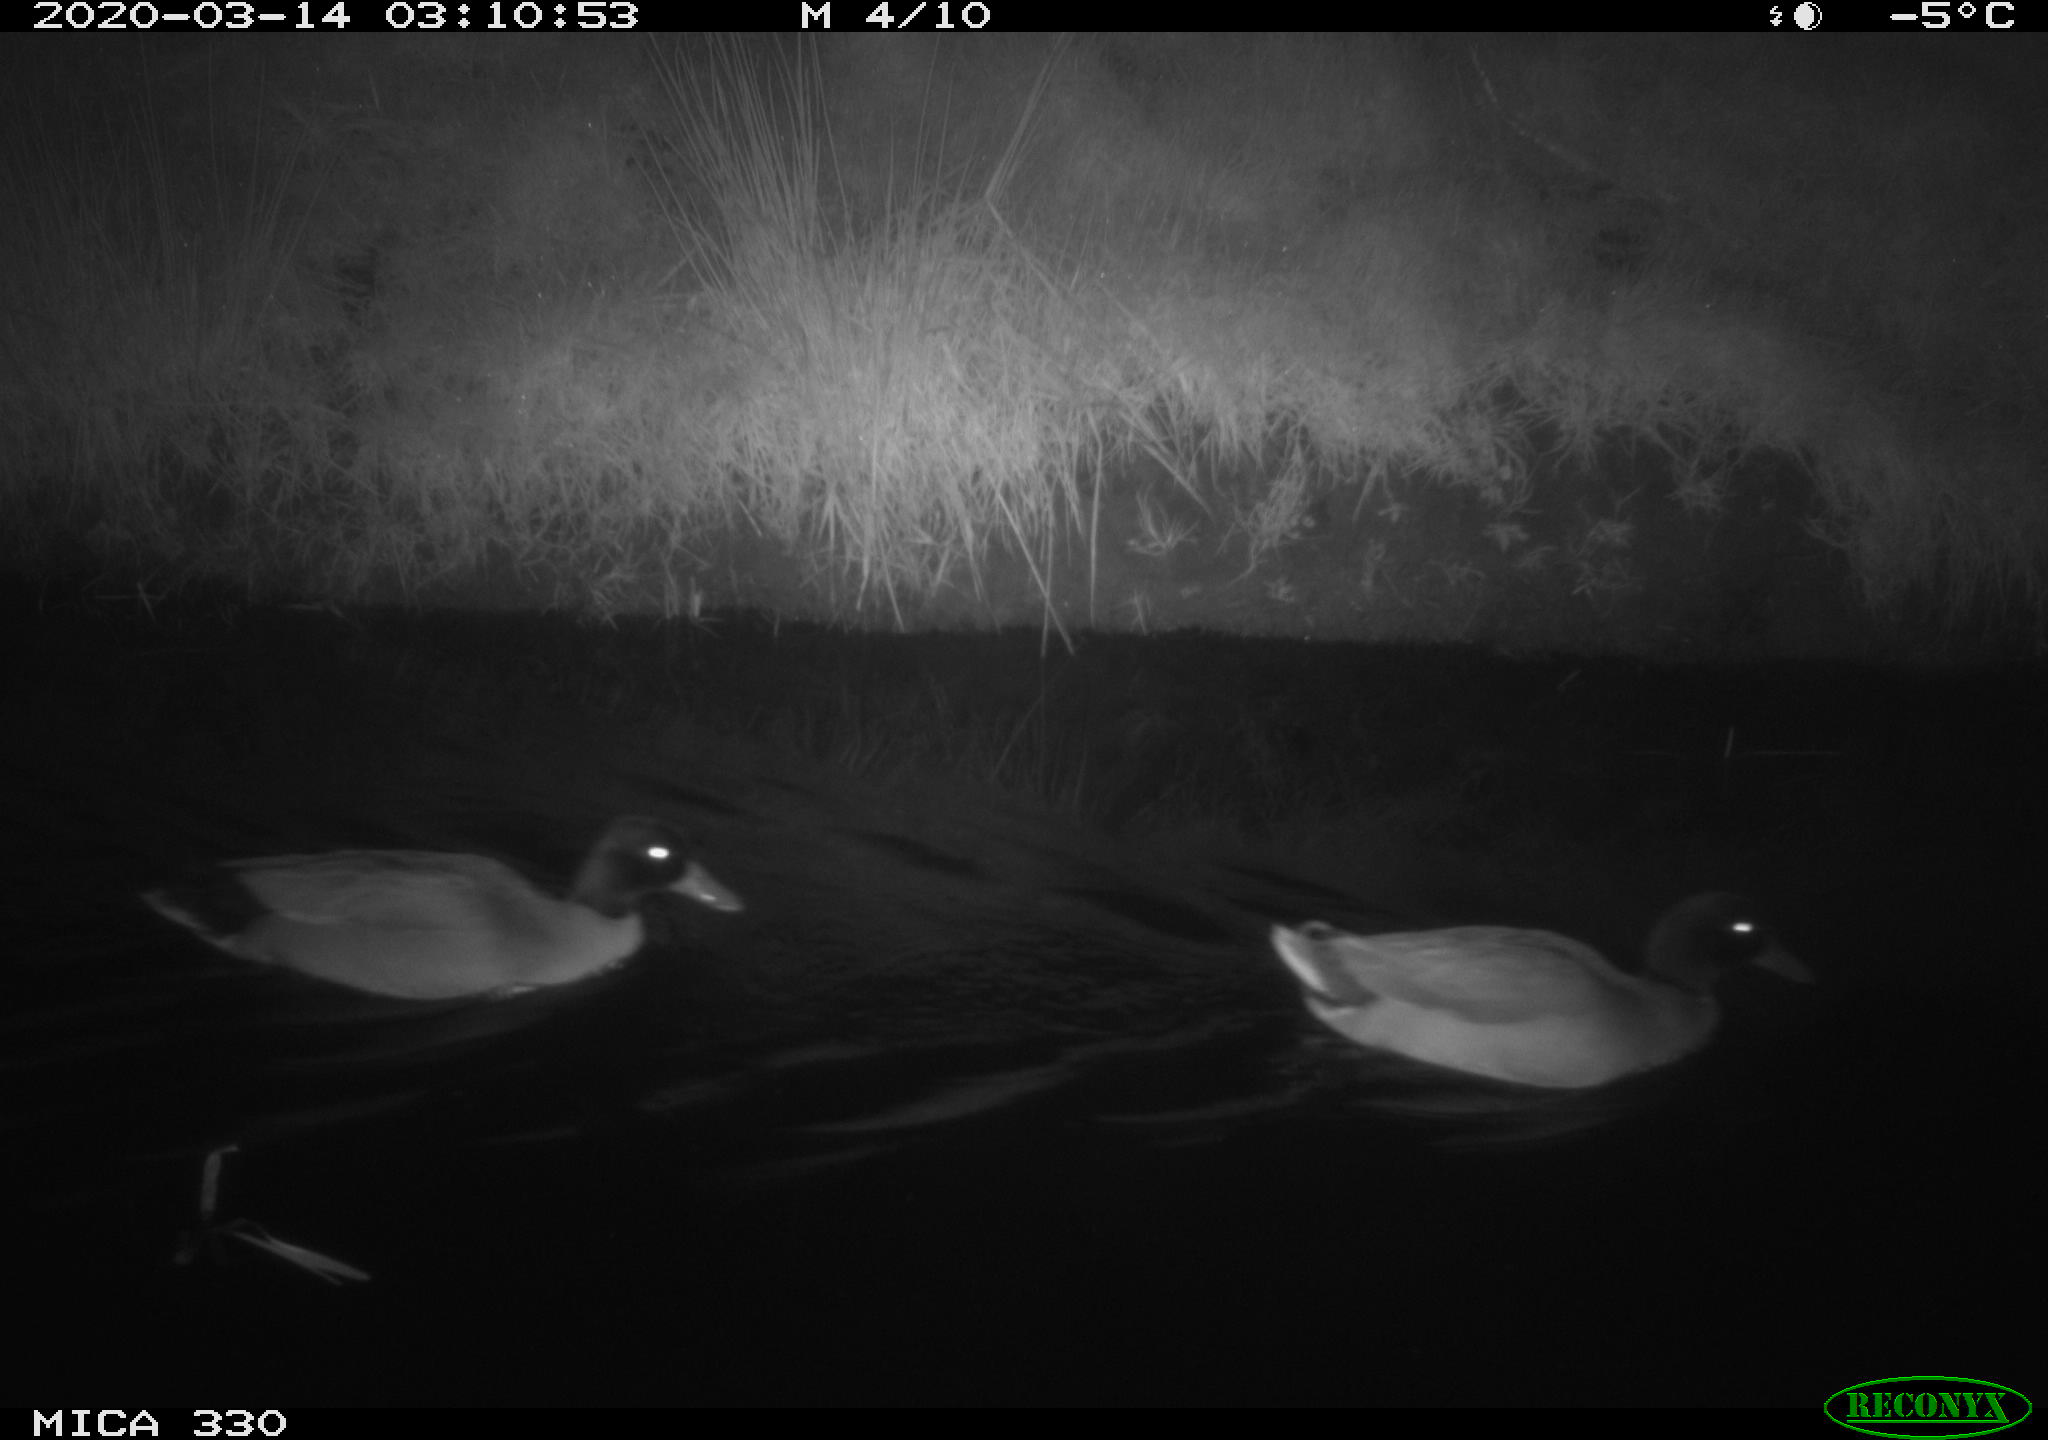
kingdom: Animalia
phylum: Chordata
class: Aves
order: Anseriformes
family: Anatidae
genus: Anas
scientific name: Anas platyrhynchos
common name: Mallard
